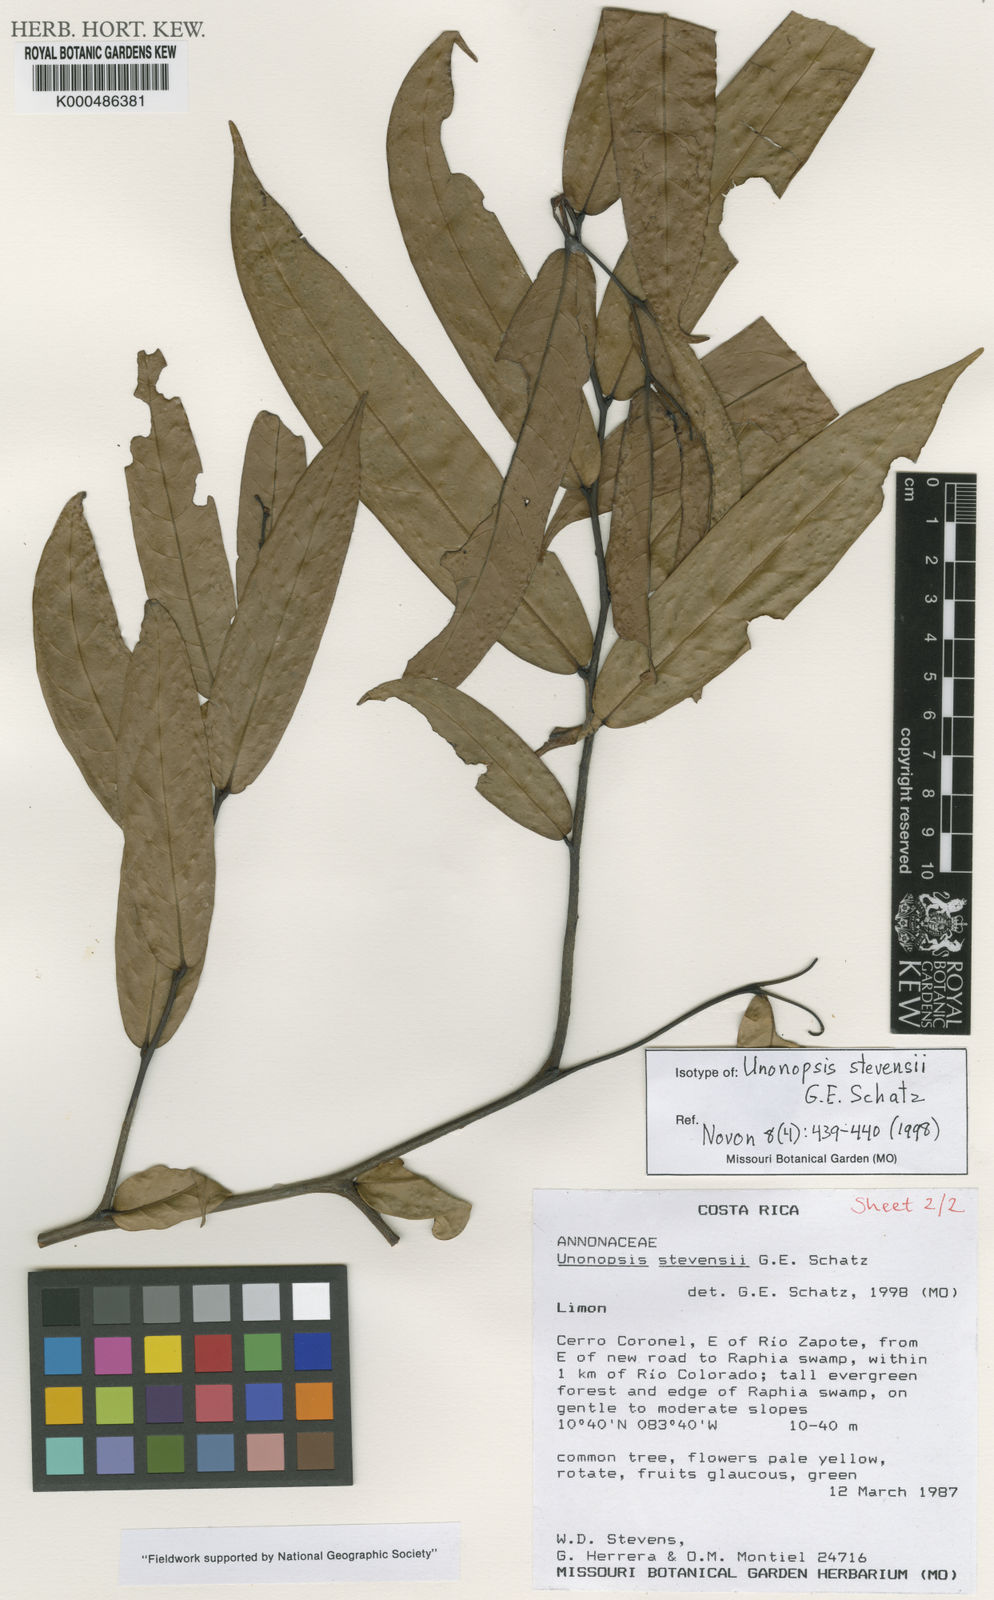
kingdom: Plantae
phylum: Tracheophyta
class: Magnoliopsida
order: Magnoliales
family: Annonaceae
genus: Unonopsis
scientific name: Unonopsis stevensii
